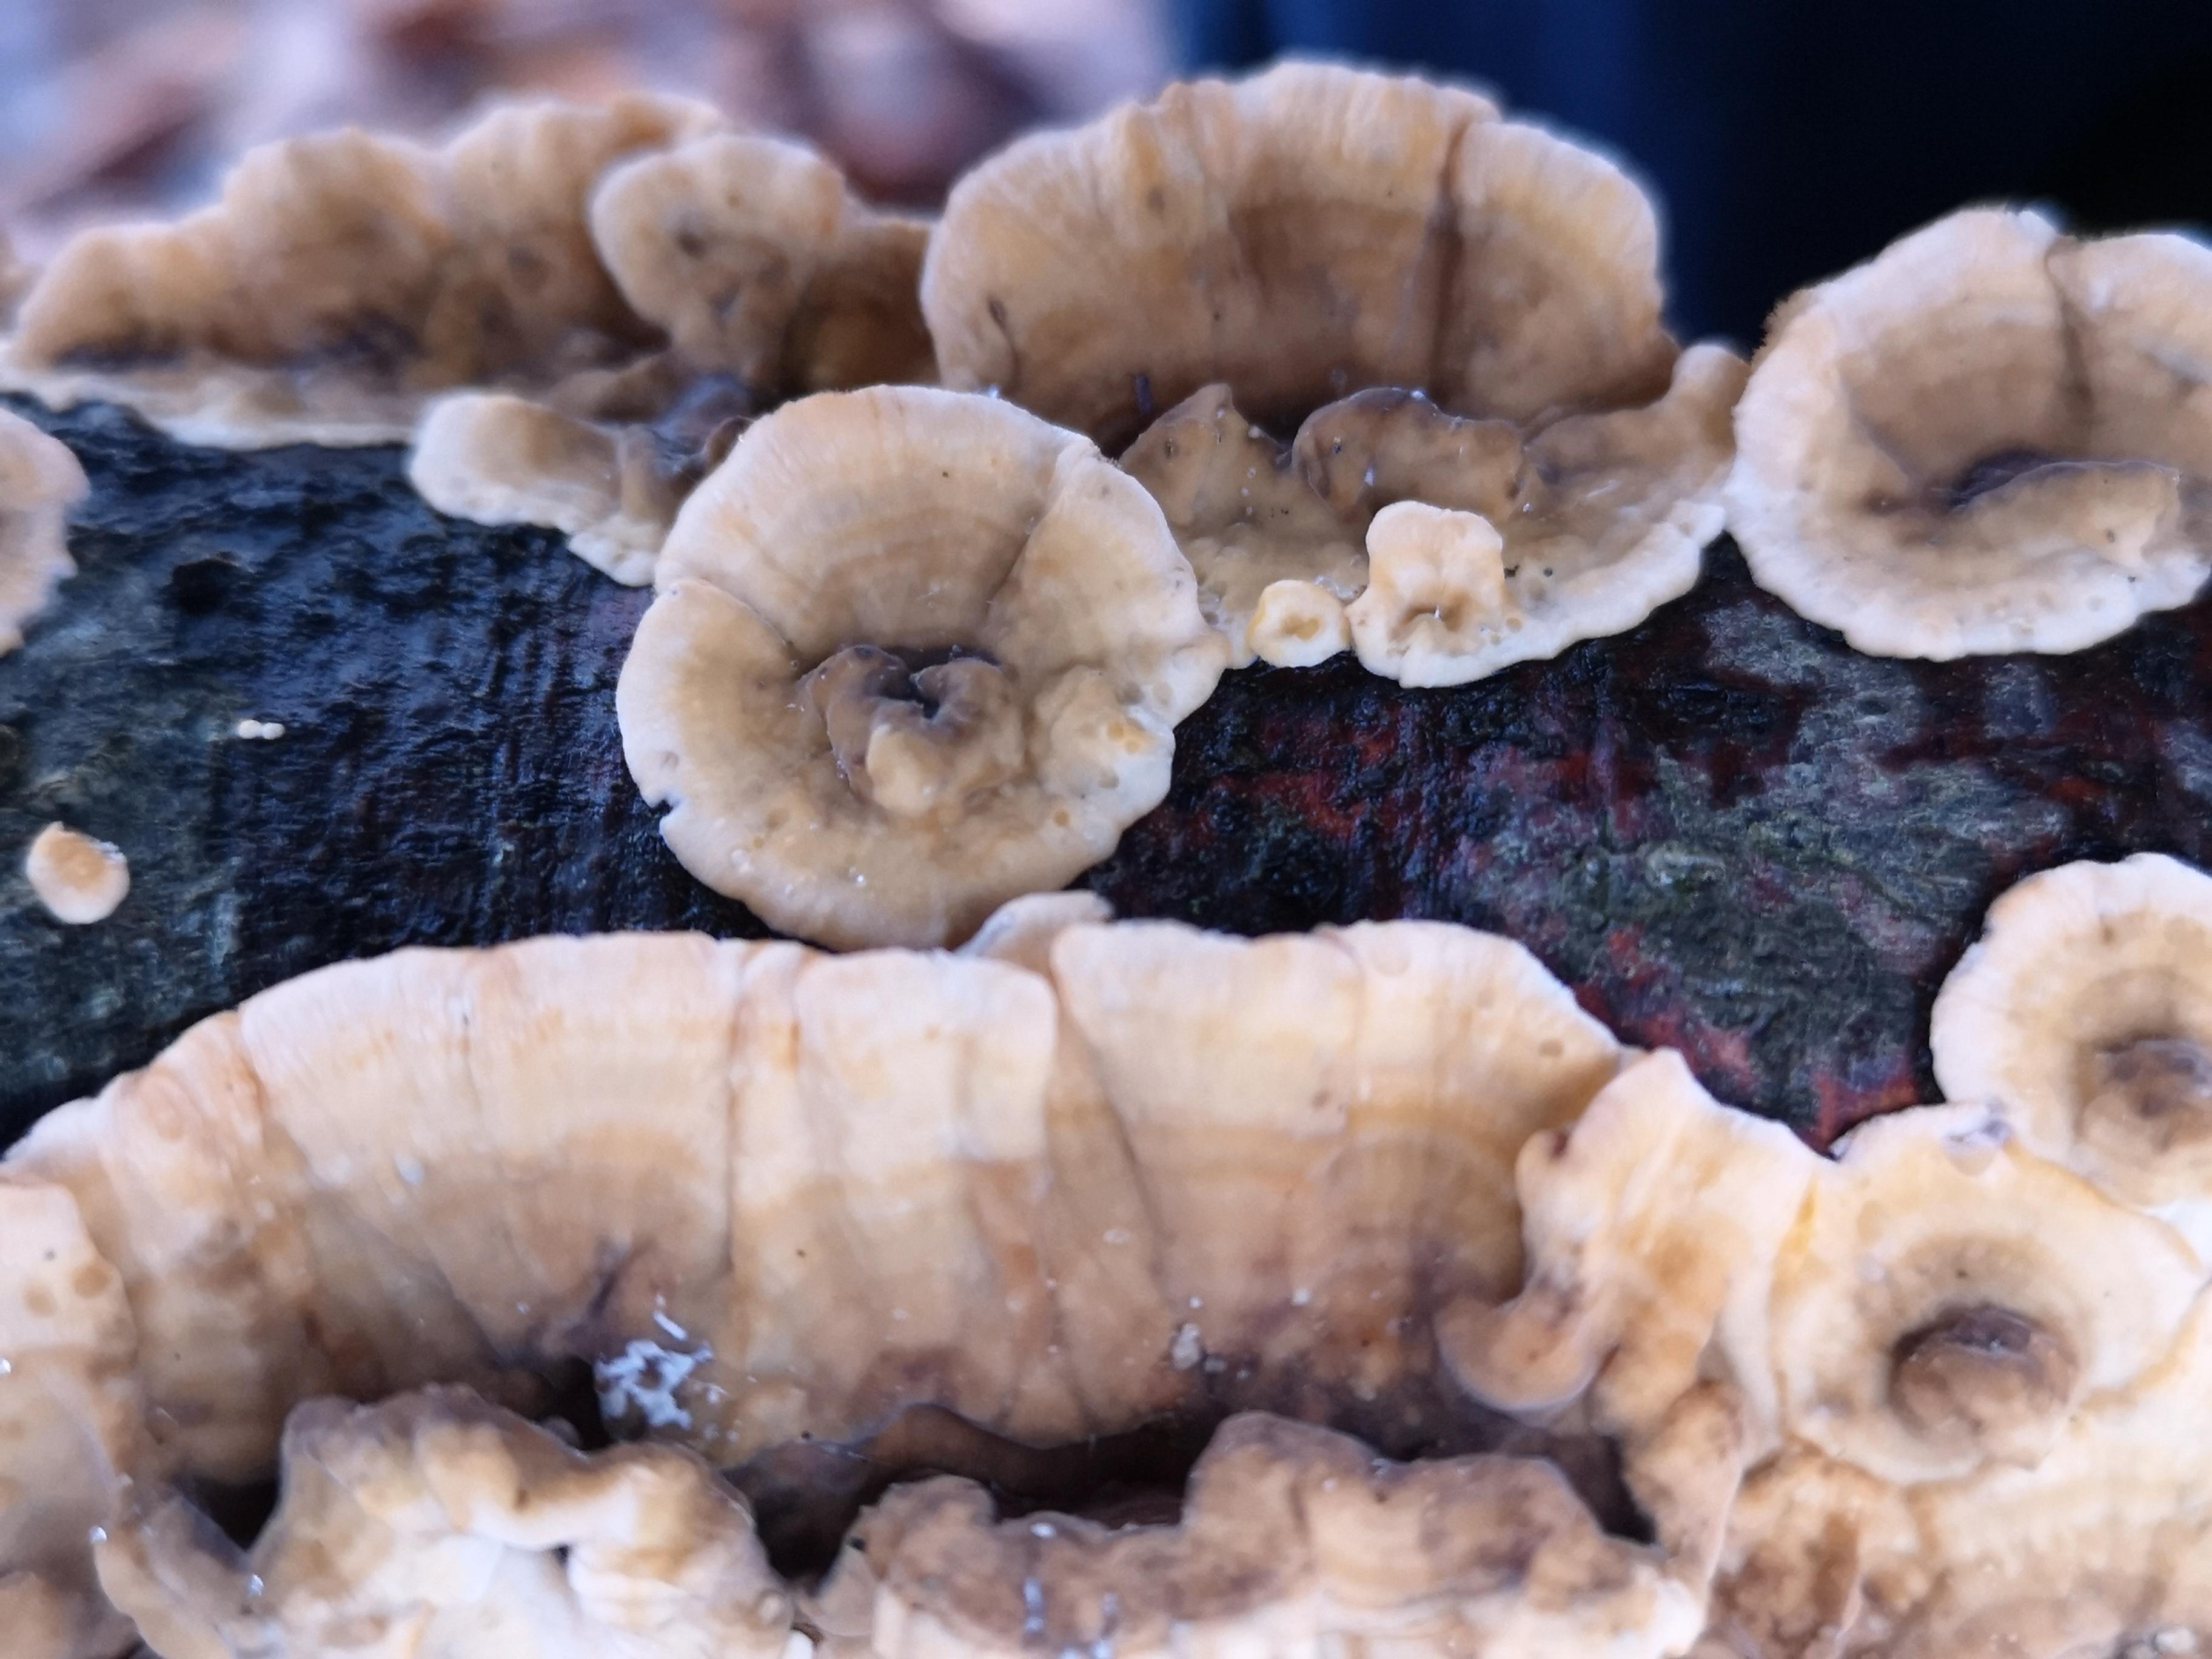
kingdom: Fungi
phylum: Basidiomycota
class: Agaricomycetes
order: Russulales
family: Stereaceae
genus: Stereum
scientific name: Stereum hirsutum
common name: håret lædersvamp
